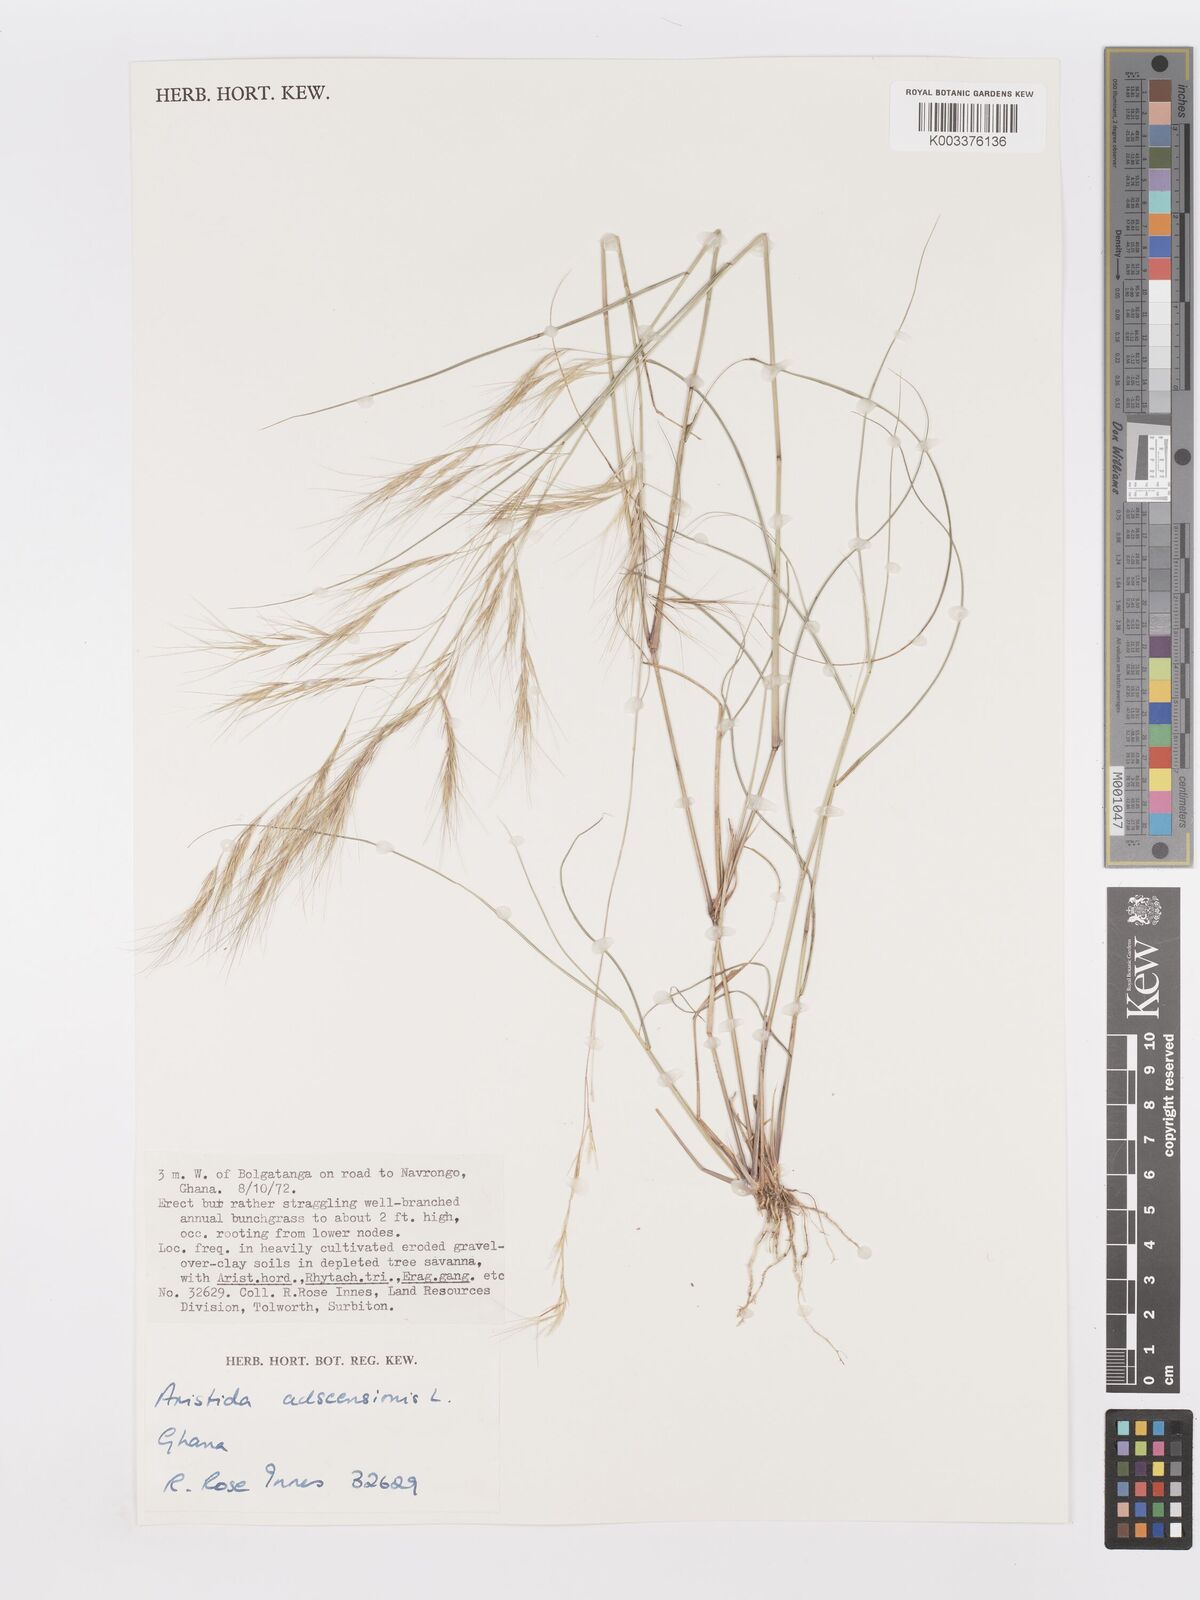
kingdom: Plantae
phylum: Tracheophyta
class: Liliopsida
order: Poales
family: Poaceae
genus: Aristida
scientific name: Aristida adscensionis
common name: Sixweeks threeawn
